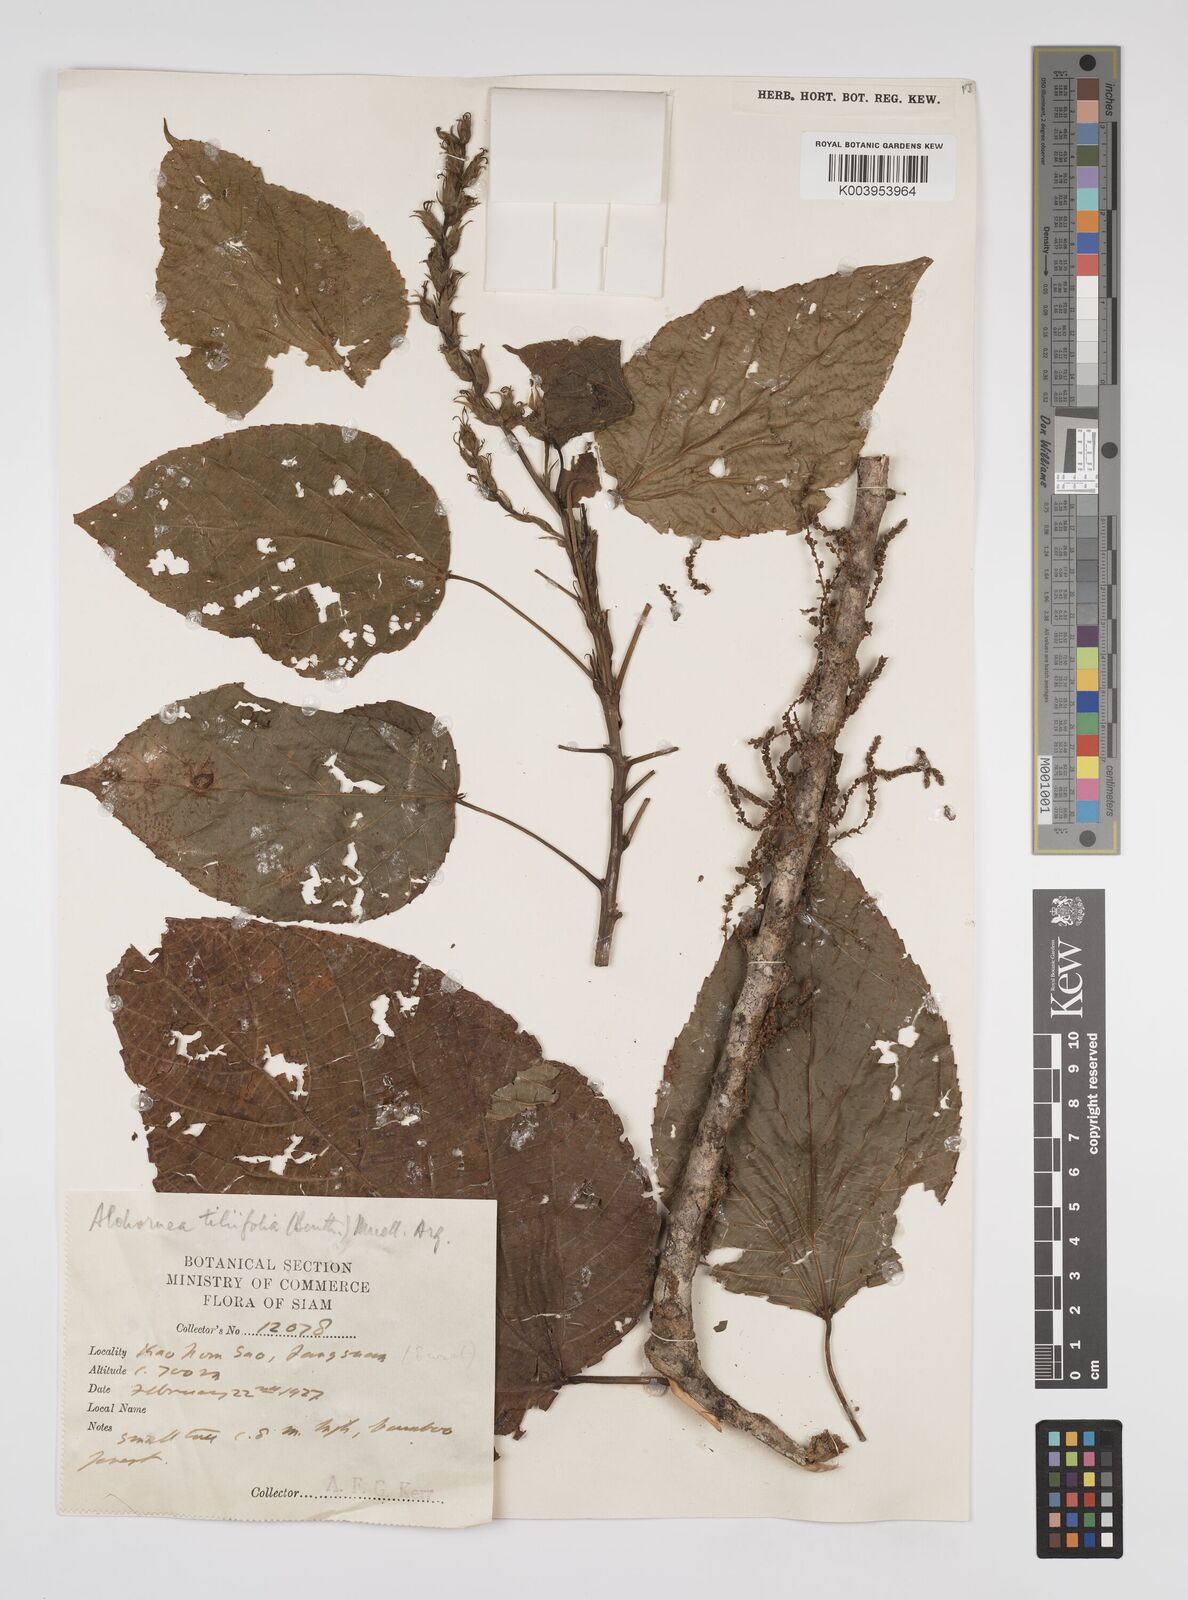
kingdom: Plantae
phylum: Tracheophyta
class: Magnoliopsida
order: Malpighiales
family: Euphorbiaceae
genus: Alchornea
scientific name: Alchornea tiliifolia
